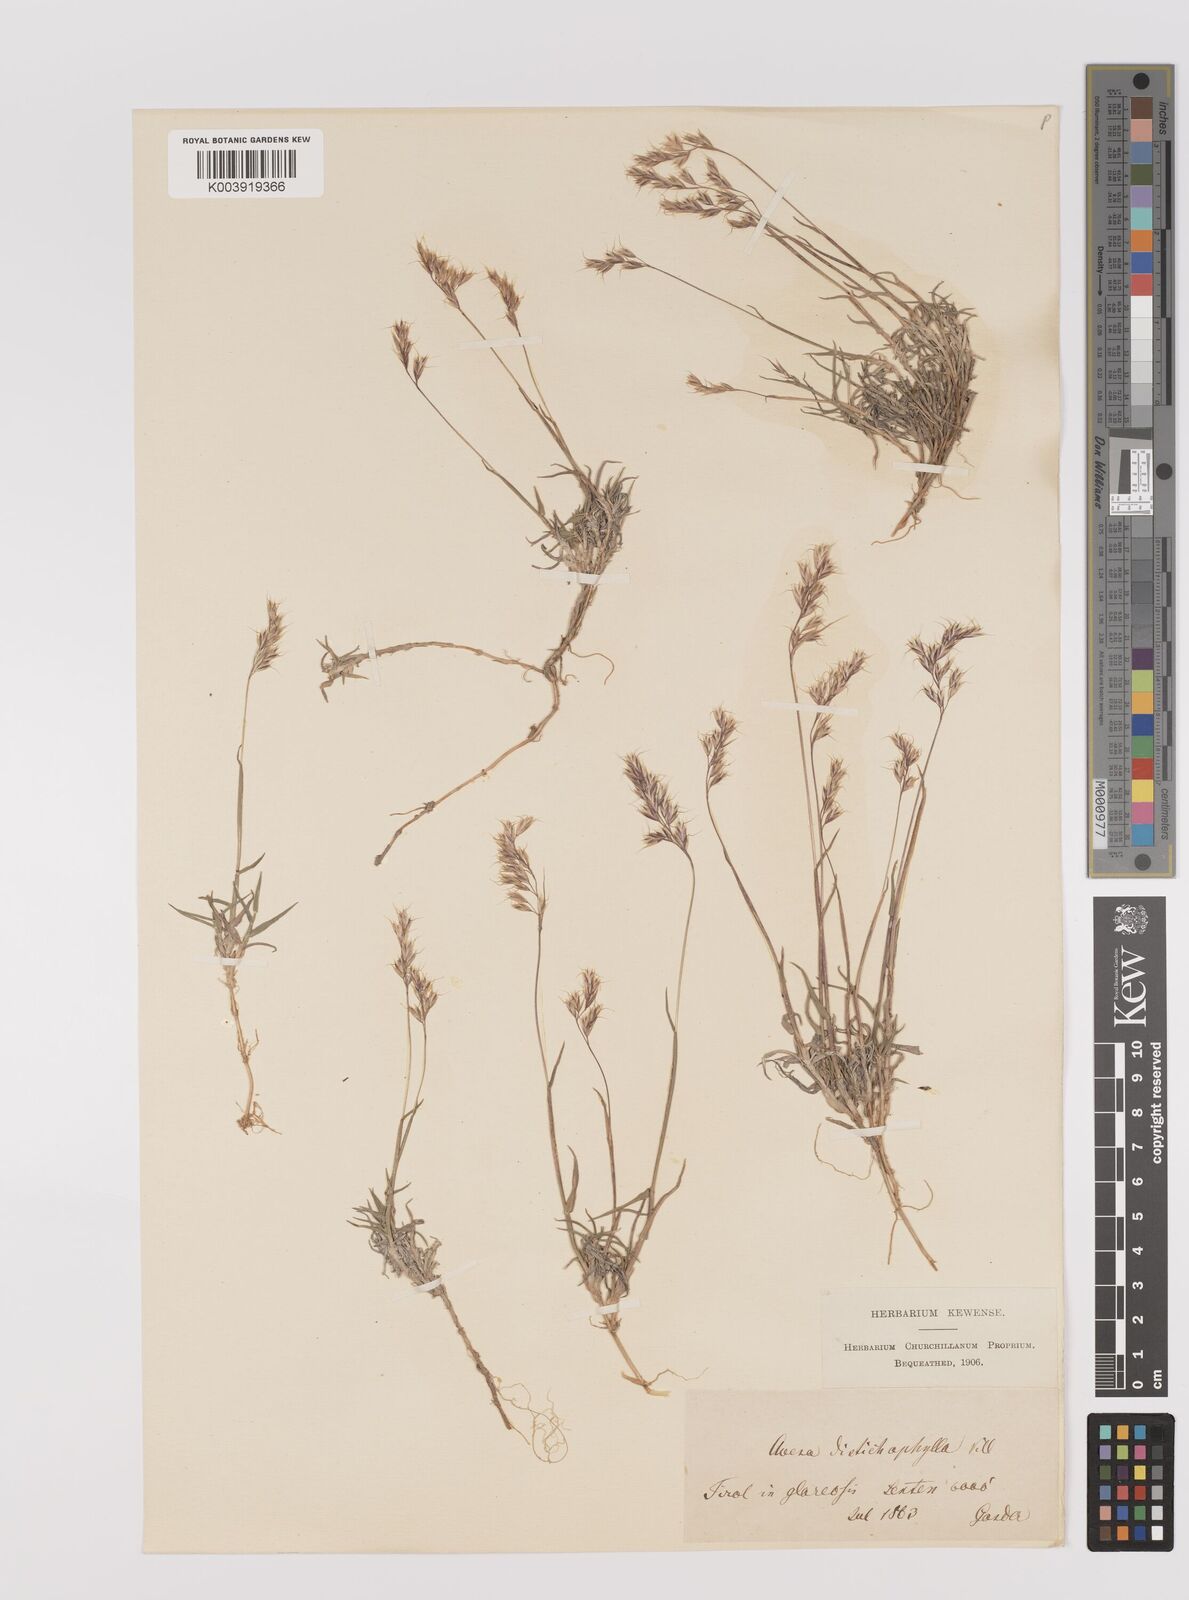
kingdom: Plantae
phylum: Tracheophyta
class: Liliopsida
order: Poales
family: Poaceae
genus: Acrospelion
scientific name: Acrospelion distichophyllum
